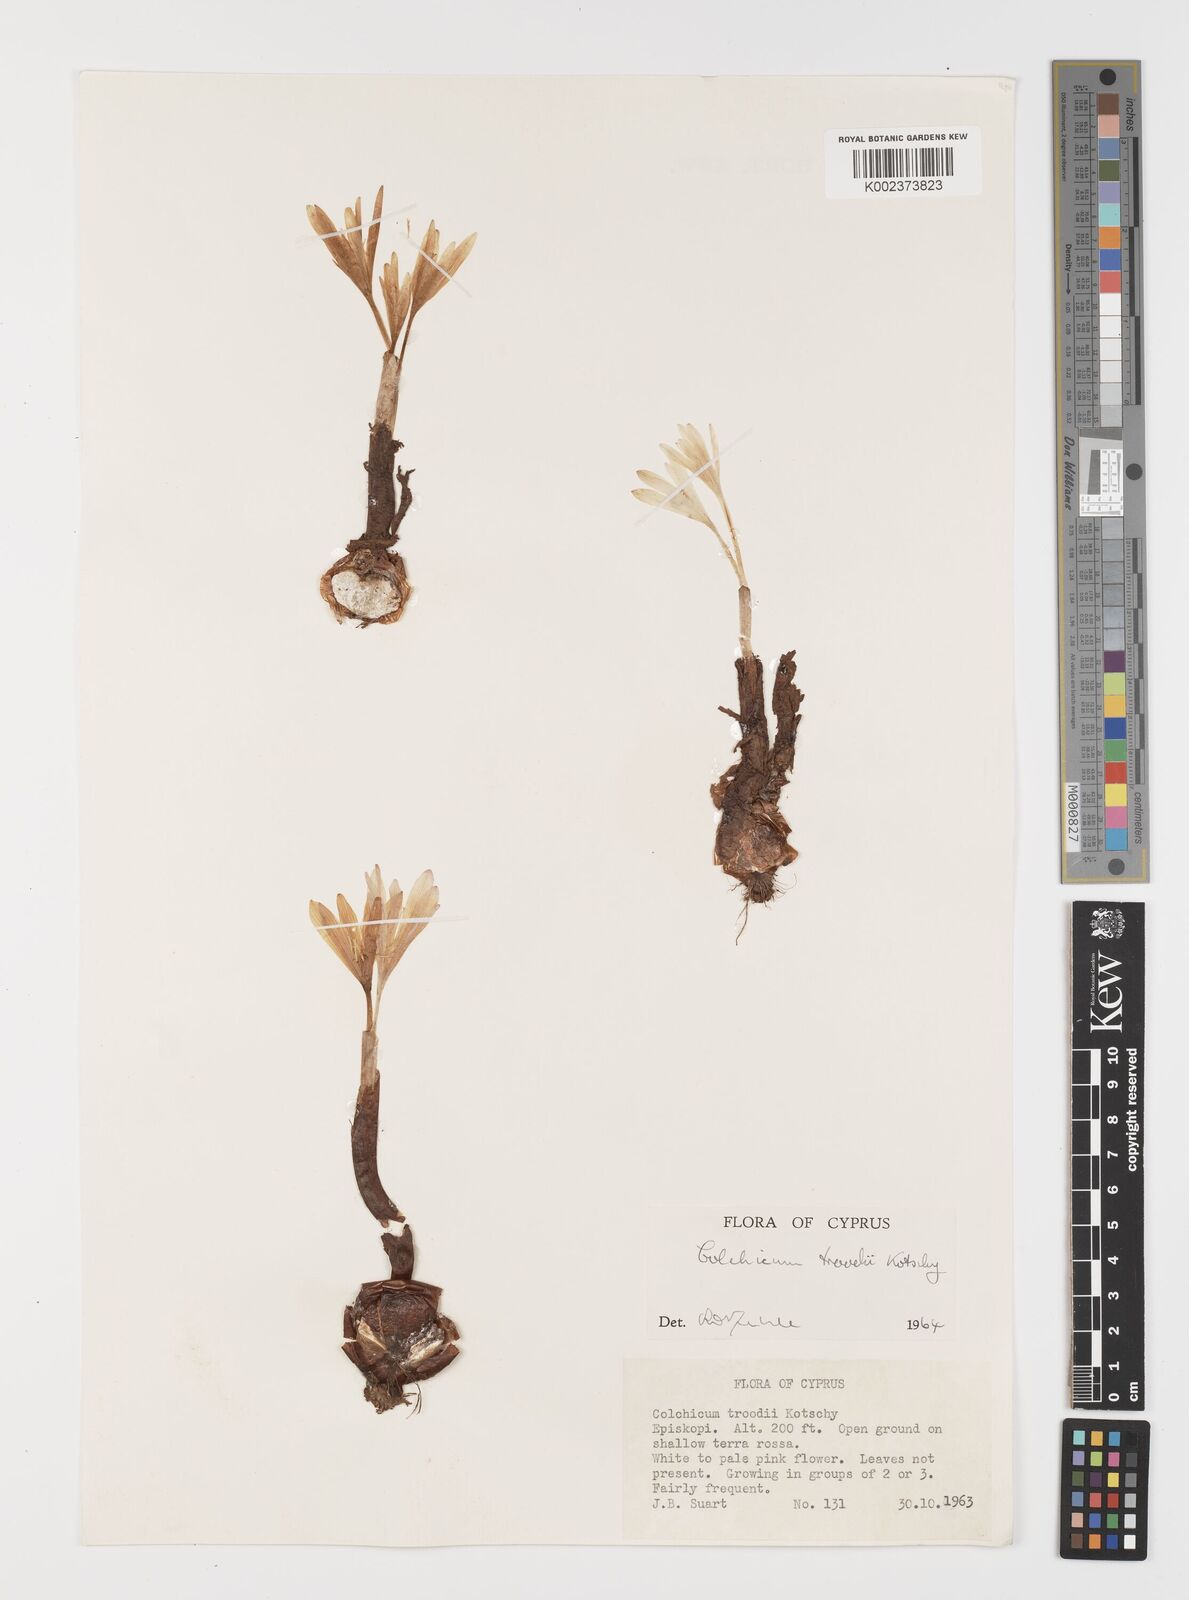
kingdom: Plantae
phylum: Tracheophyta
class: Liliopsida
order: Liliales
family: Colchicaceae
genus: Colchicum
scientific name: Colchicum troodi
